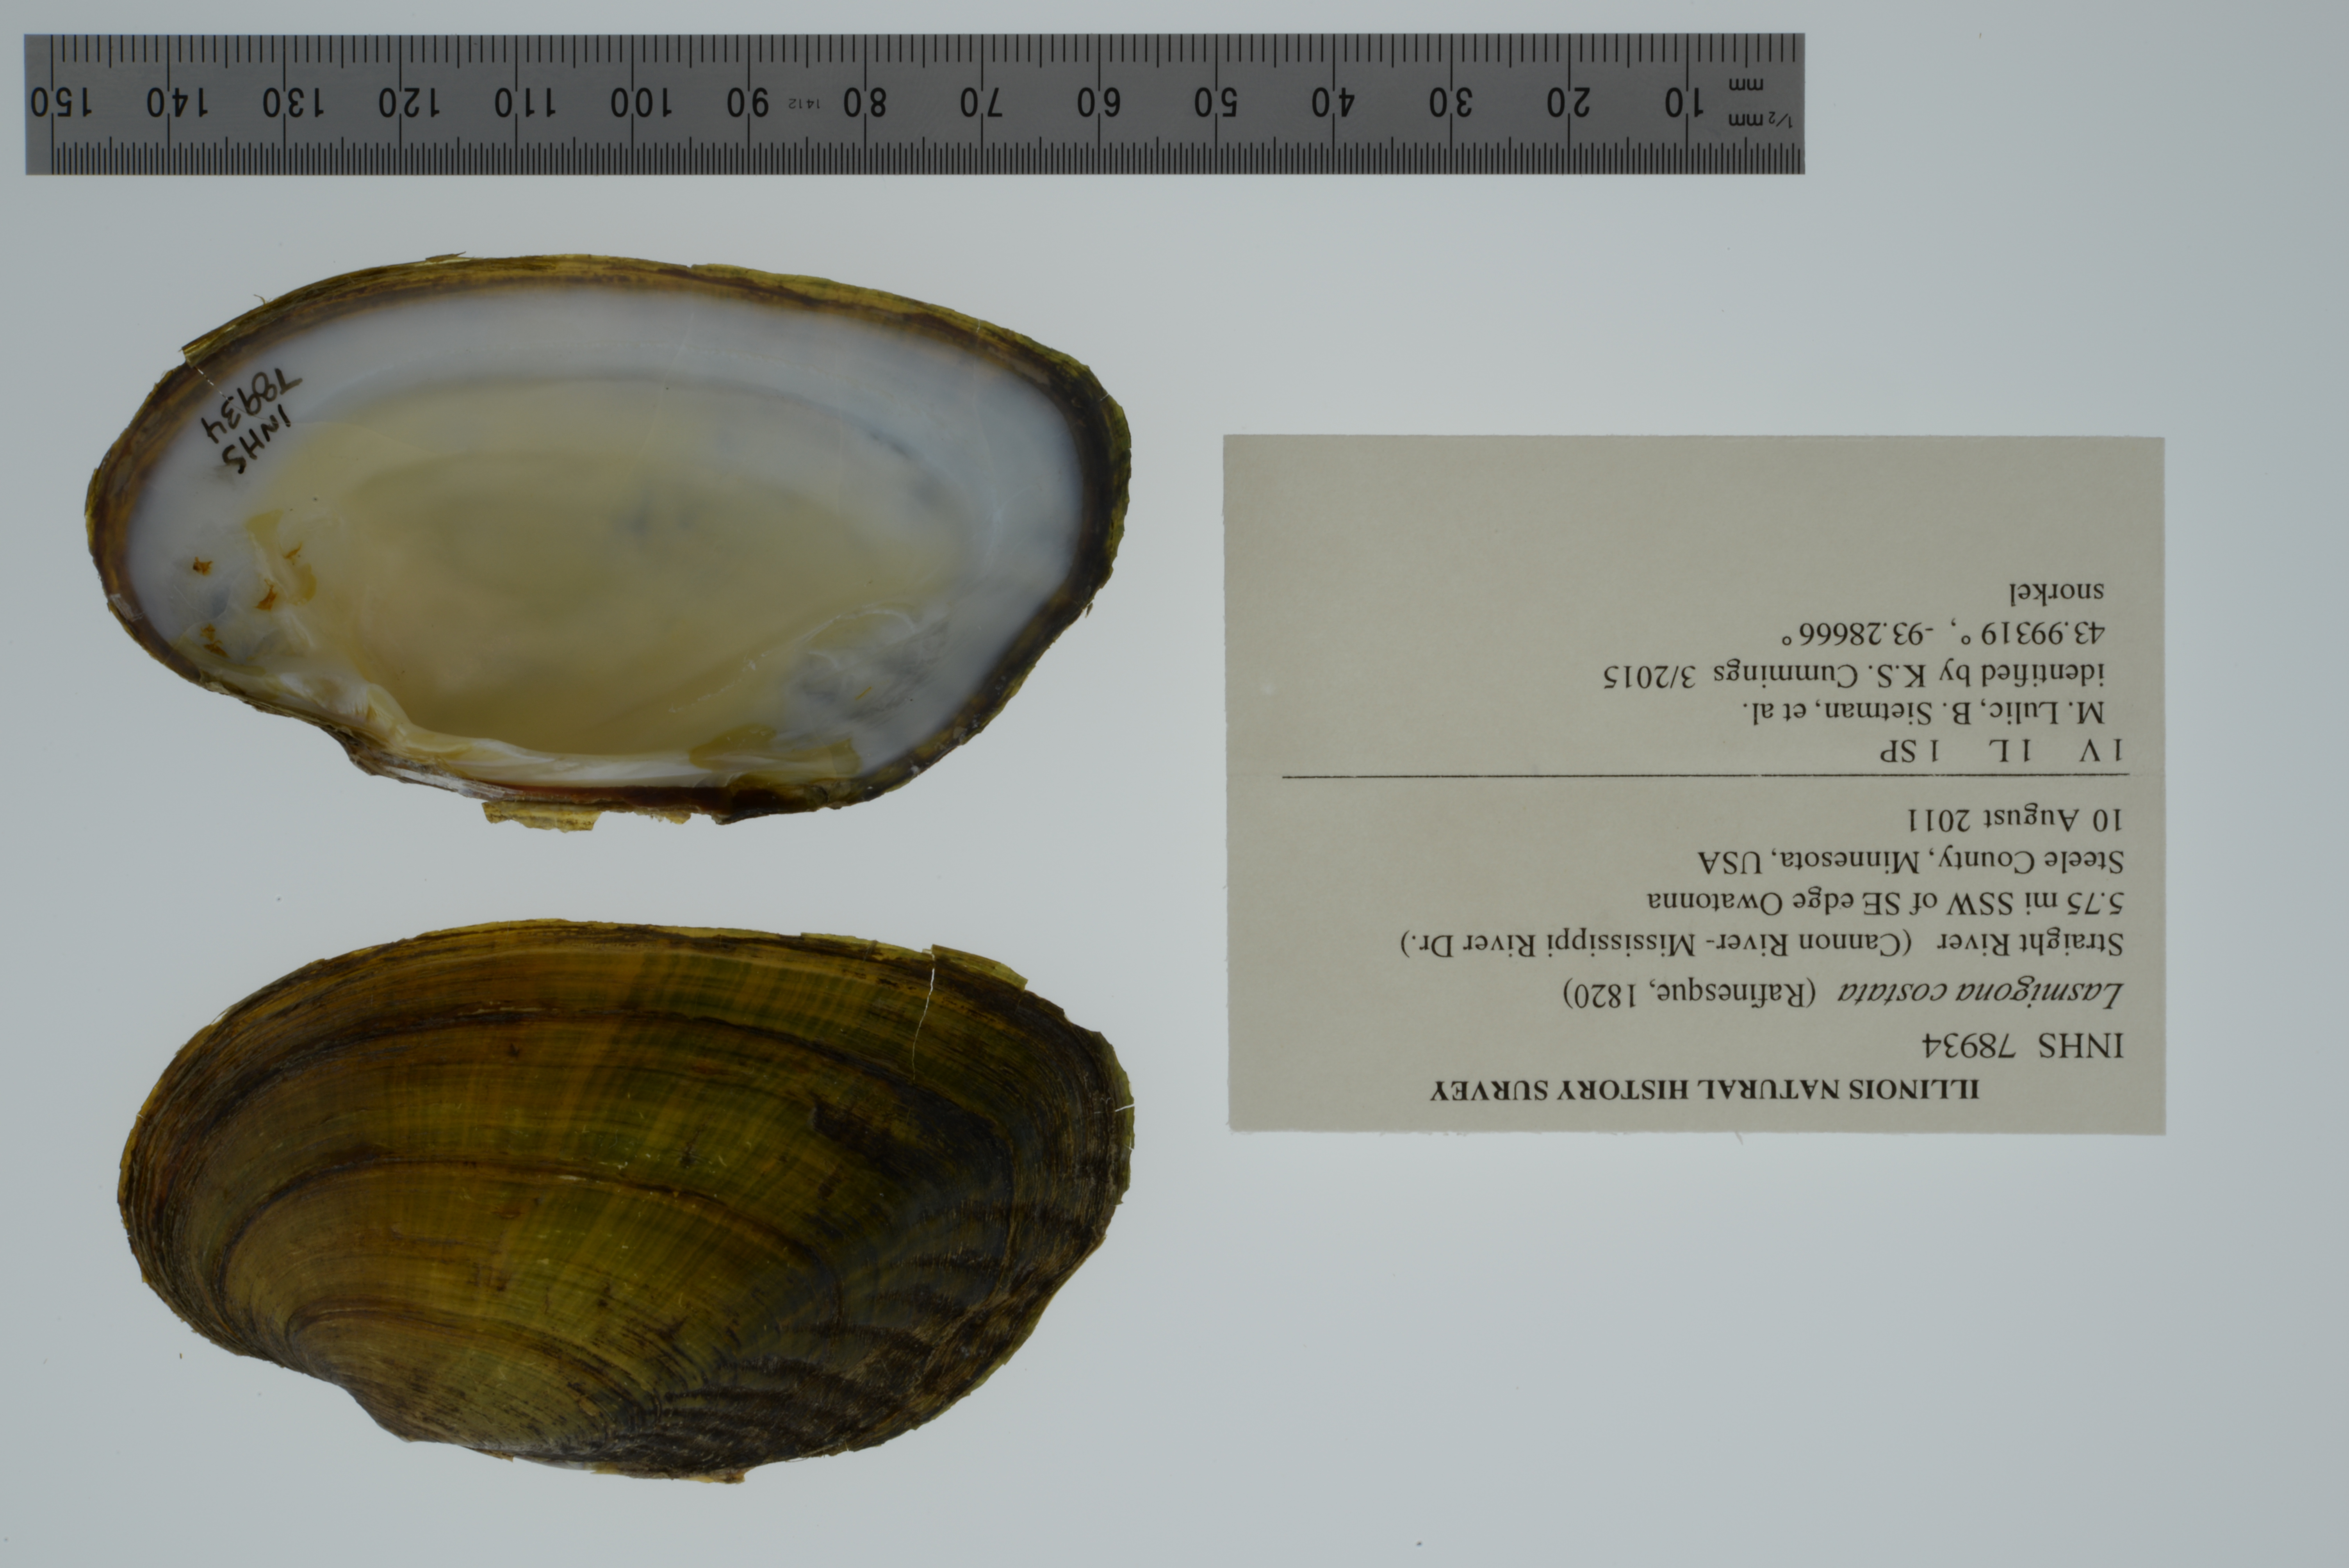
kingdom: Animalia
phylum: Mollusca
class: Bivalvia
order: Unionida
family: Unionidae
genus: Lasmigona
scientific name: Lasmigona costata
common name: Flutedshell
